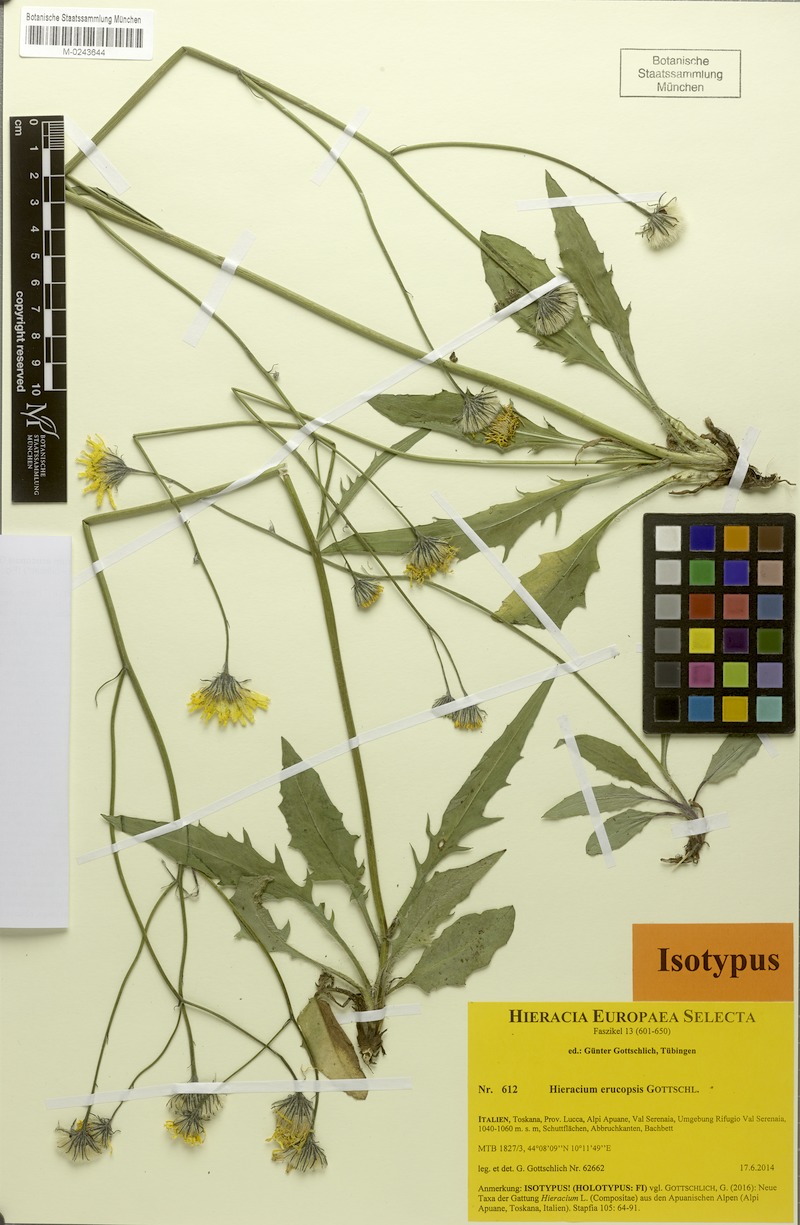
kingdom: Plantae
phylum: Tracheophyta
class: Magnoliopsida
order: Asterales
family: Asteraceae
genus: Hieracium
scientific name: Hieracium erucopsis
